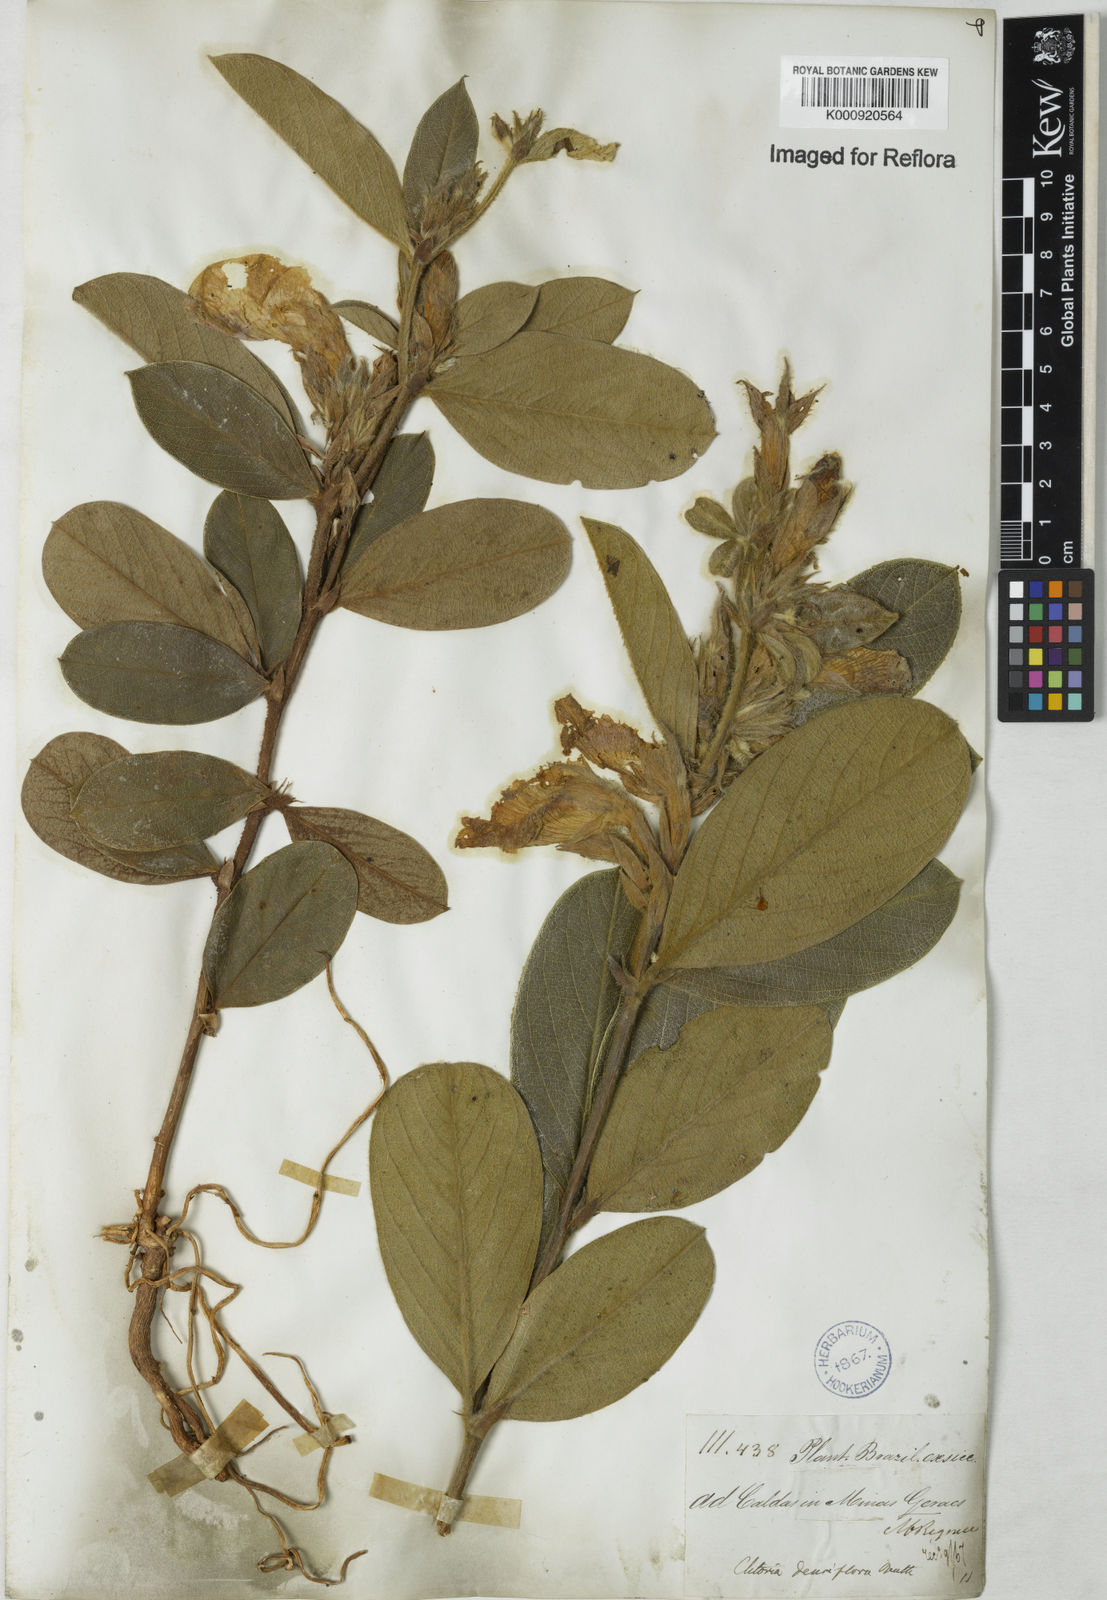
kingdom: Plantae
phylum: Tracheophyta
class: Magnoliopsida
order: Fabales
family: Fabaceae
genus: Clitoria
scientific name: Clitoria
